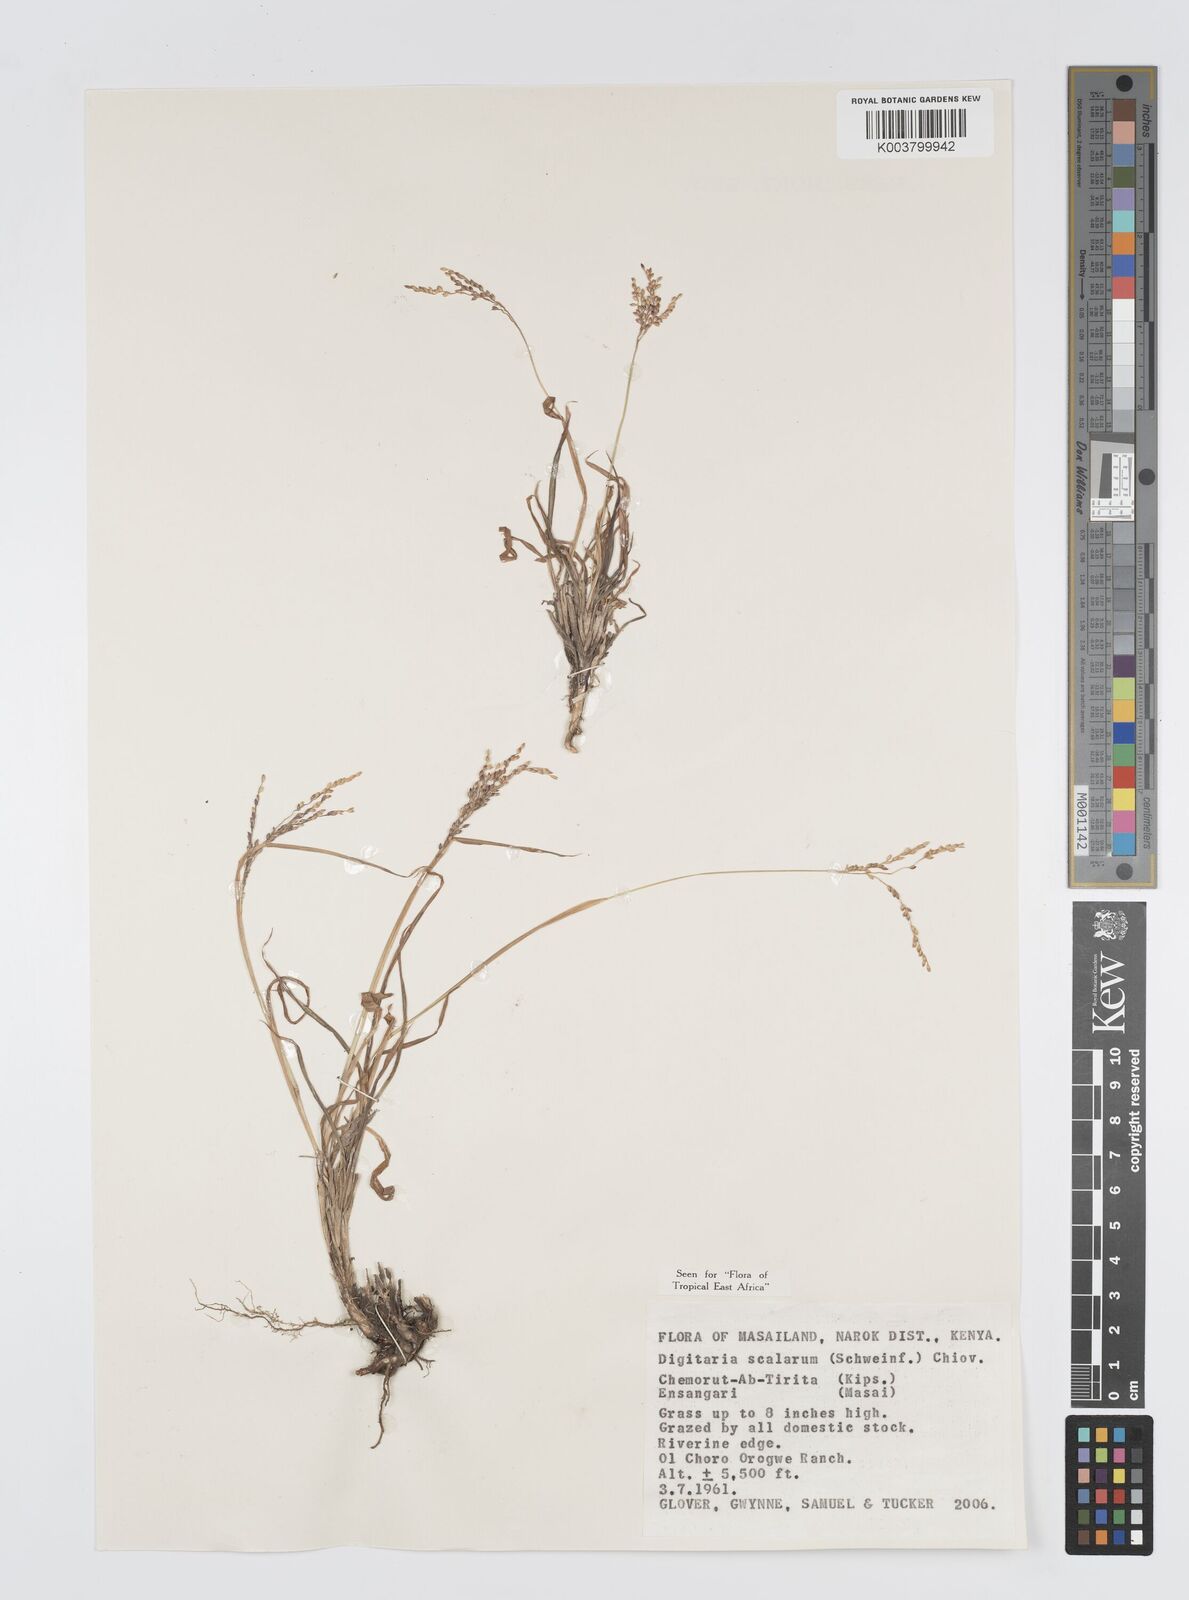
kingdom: Plantae
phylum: Tracheophyta
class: Liliopsida
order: Poales
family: Poaceae
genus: Digitaria
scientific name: Digitaria abyssinica
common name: African couchgrass
